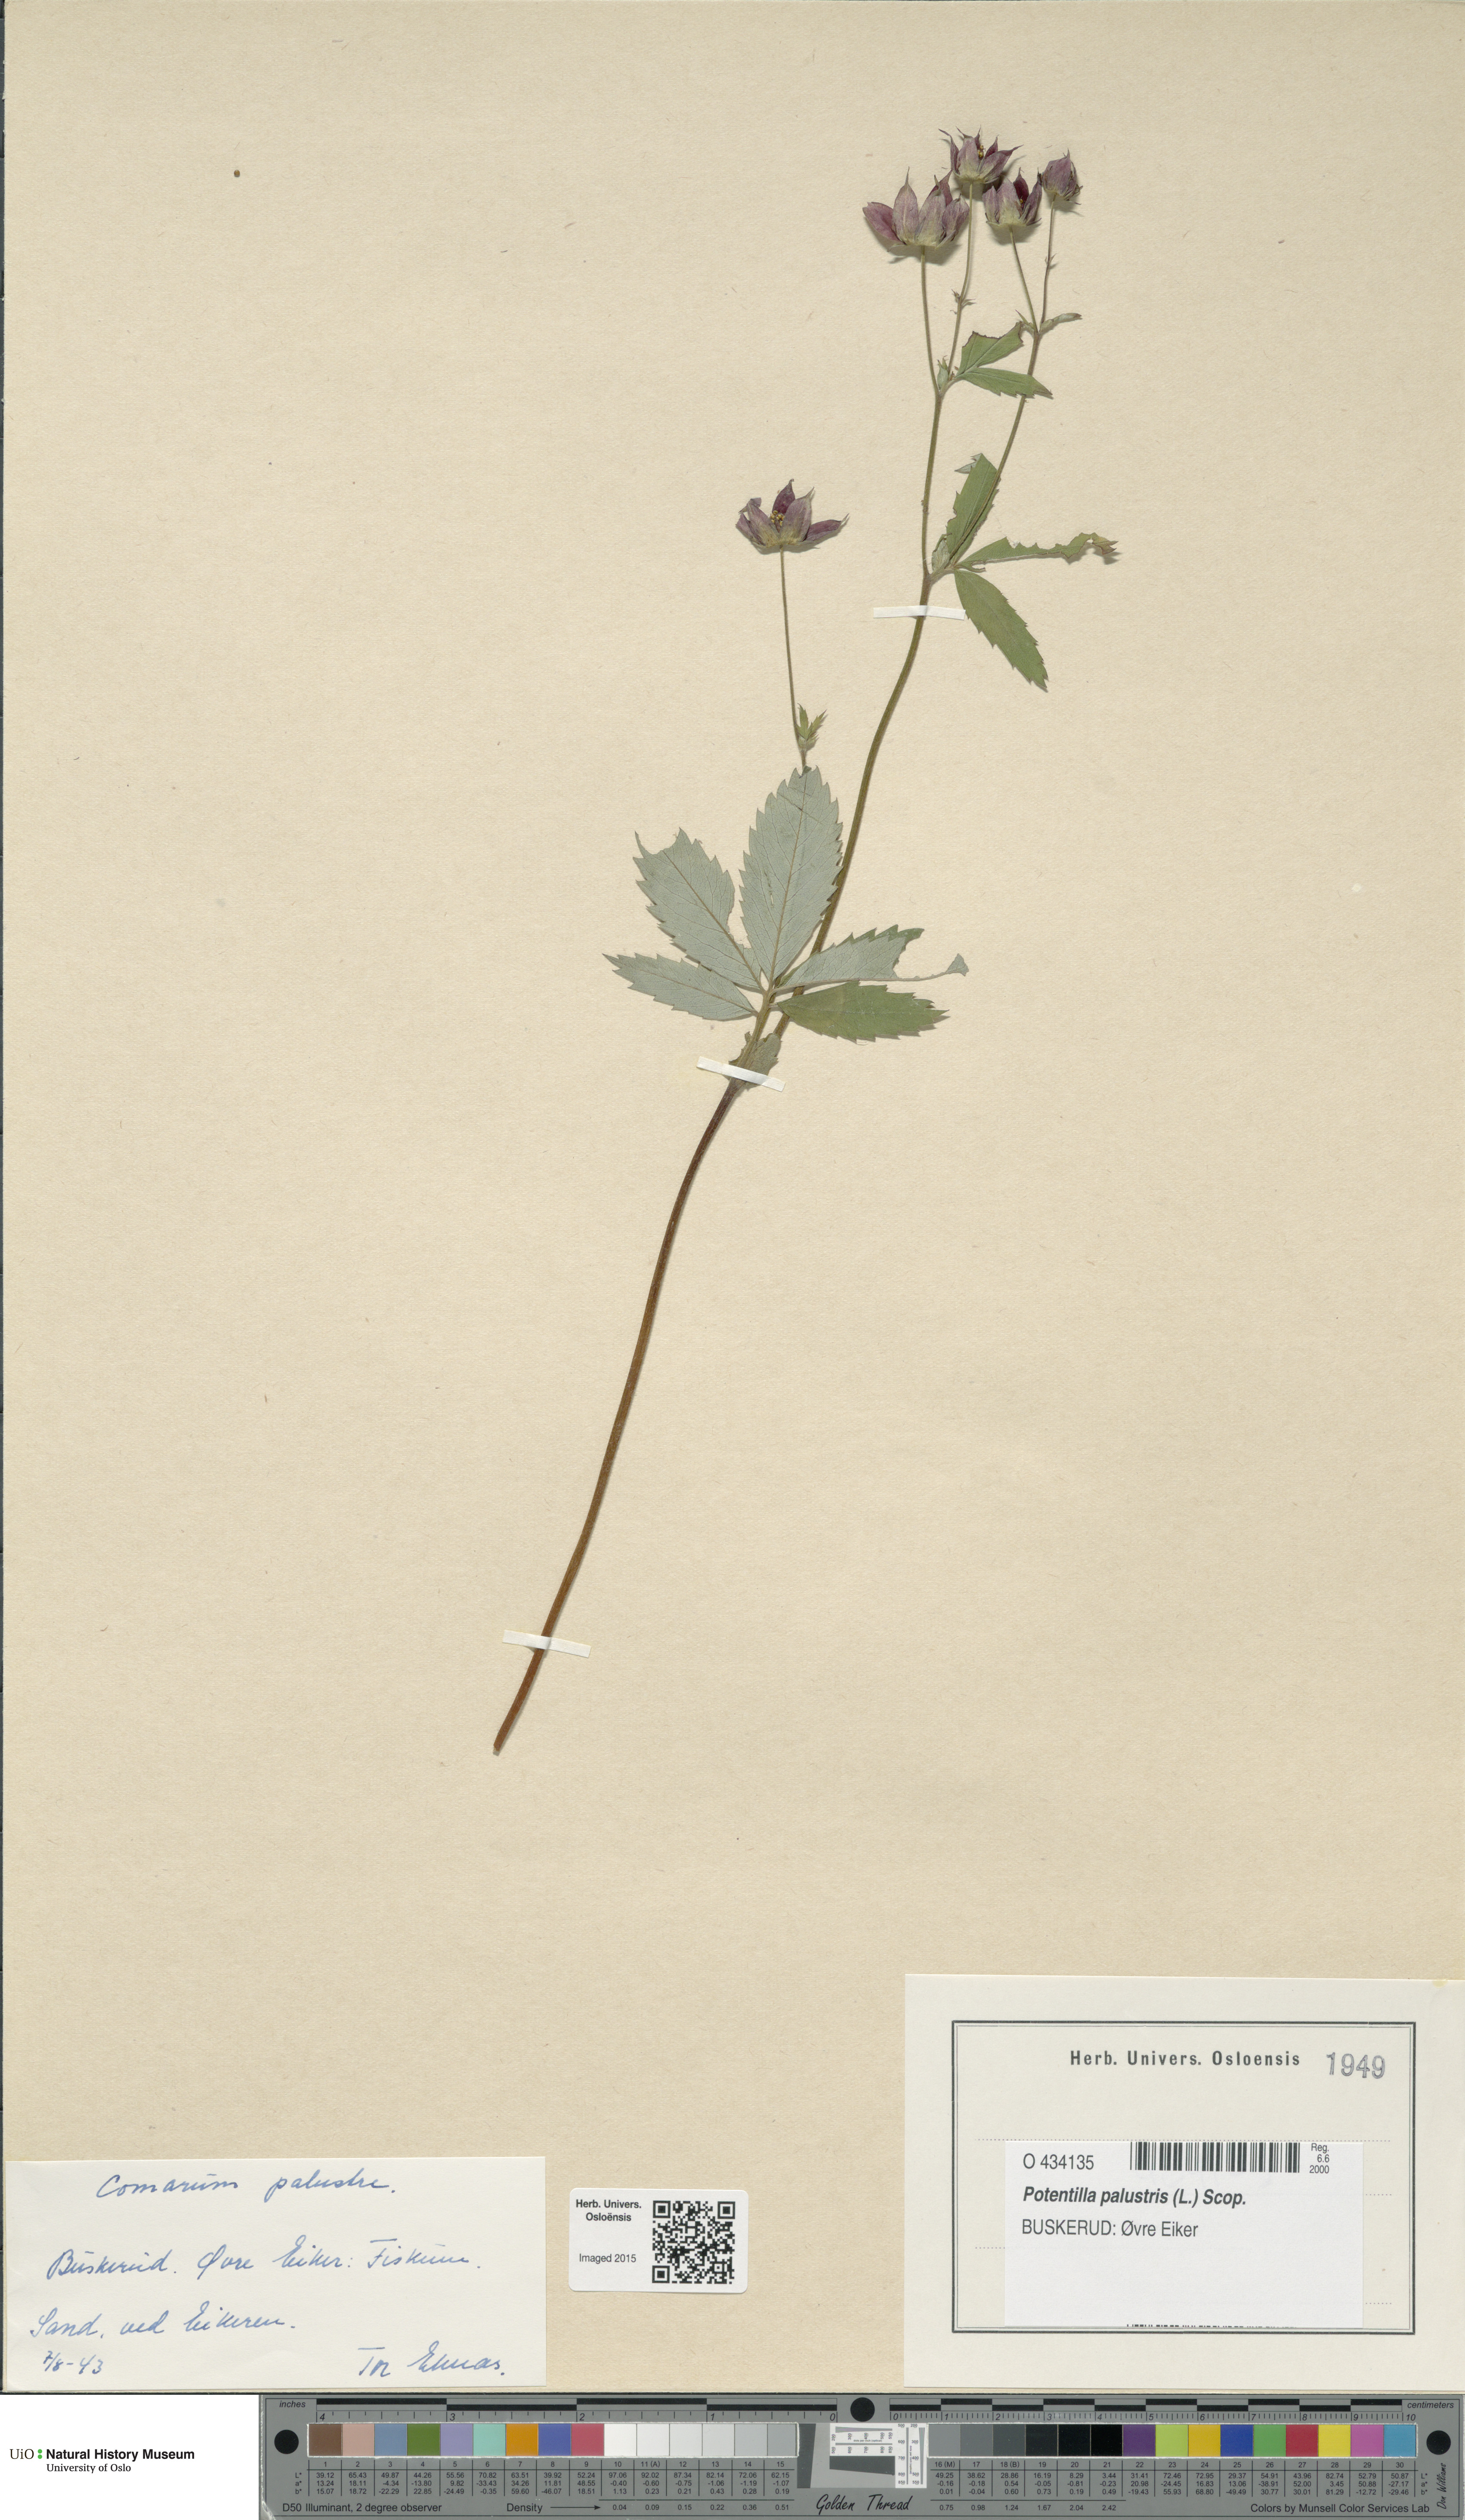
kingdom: Plantae
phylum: Tracheophyta
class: Magnoliopsida
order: Rosales
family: Rosaceae
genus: Comarum
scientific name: Comarum palustre
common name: Marsh cinquefoil
